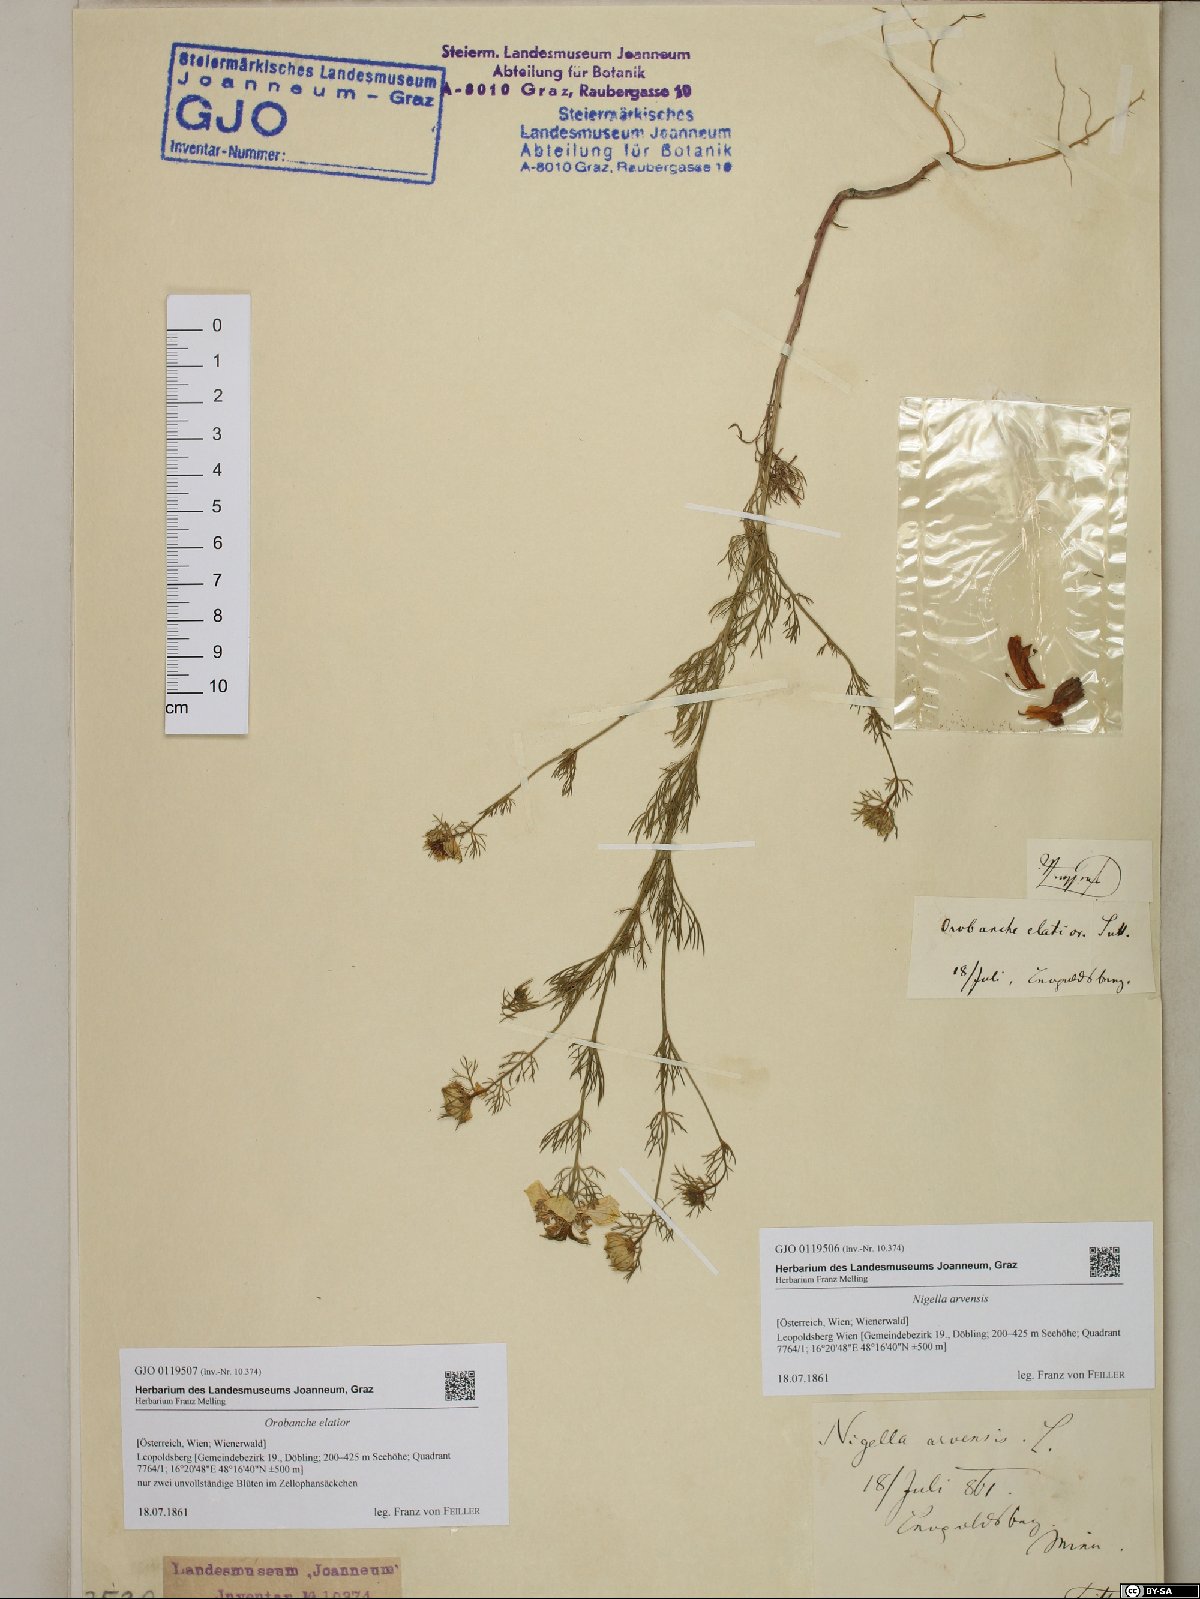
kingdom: Plantae
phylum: Tracheophyta
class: Magnoliopsida
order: Ranunculales
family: Ranunculaceae
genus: Nigella
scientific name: Nigella arvensis
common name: Wild fennel-flower
